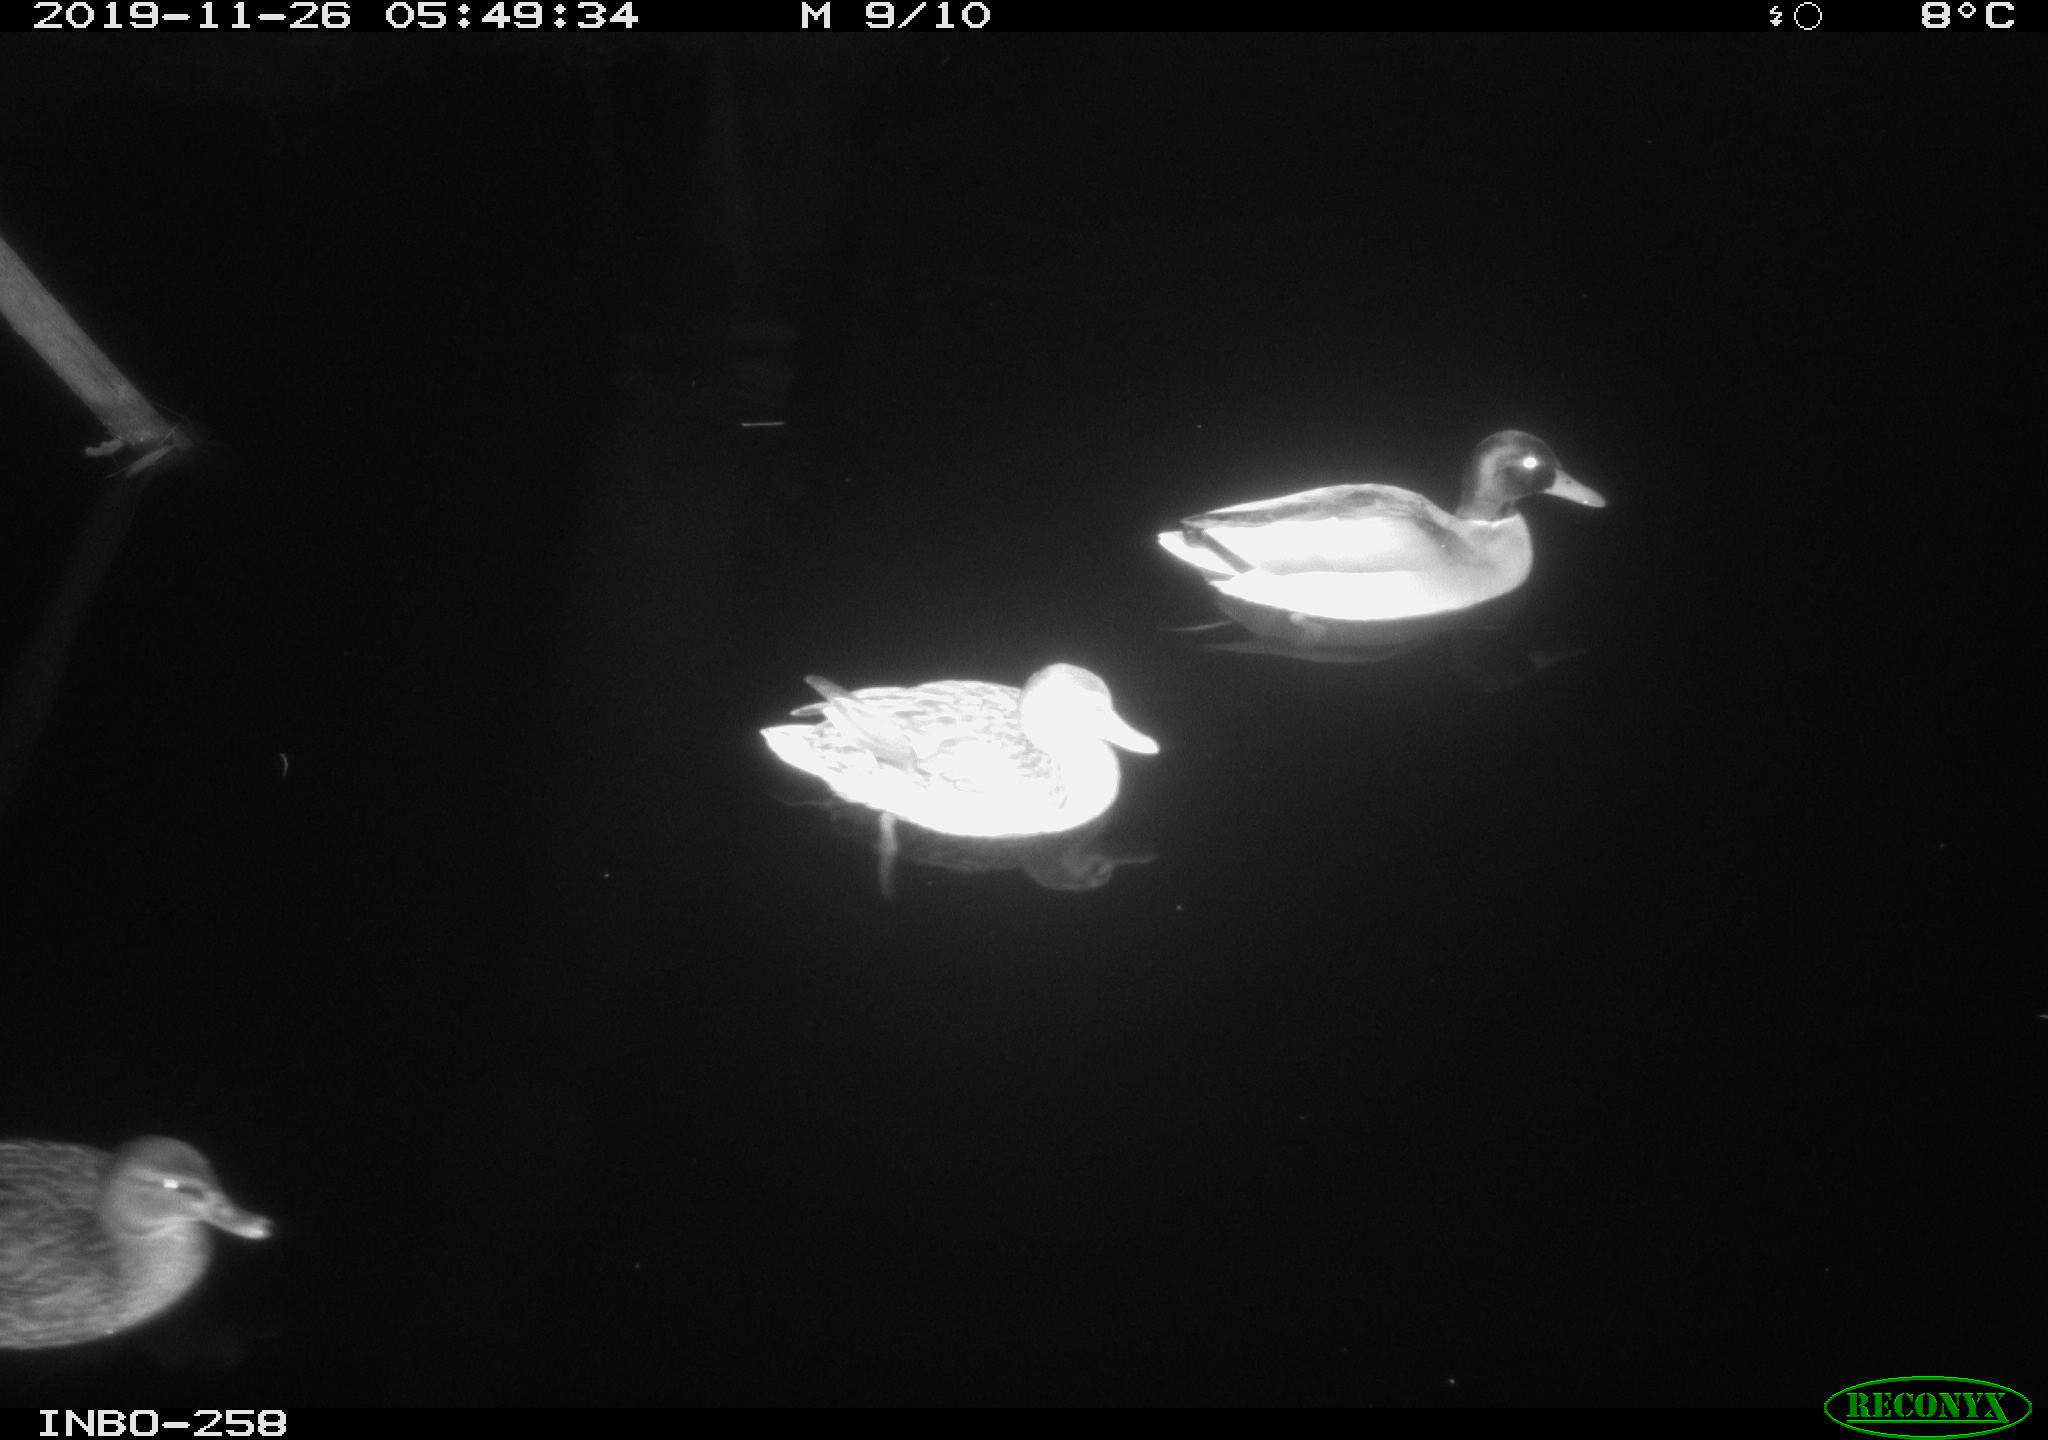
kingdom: Animalia
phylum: Chordata
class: Aves
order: Anseriformes
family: Anatidae
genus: Anas
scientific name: Anas platyrhynchos
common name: Mallard
